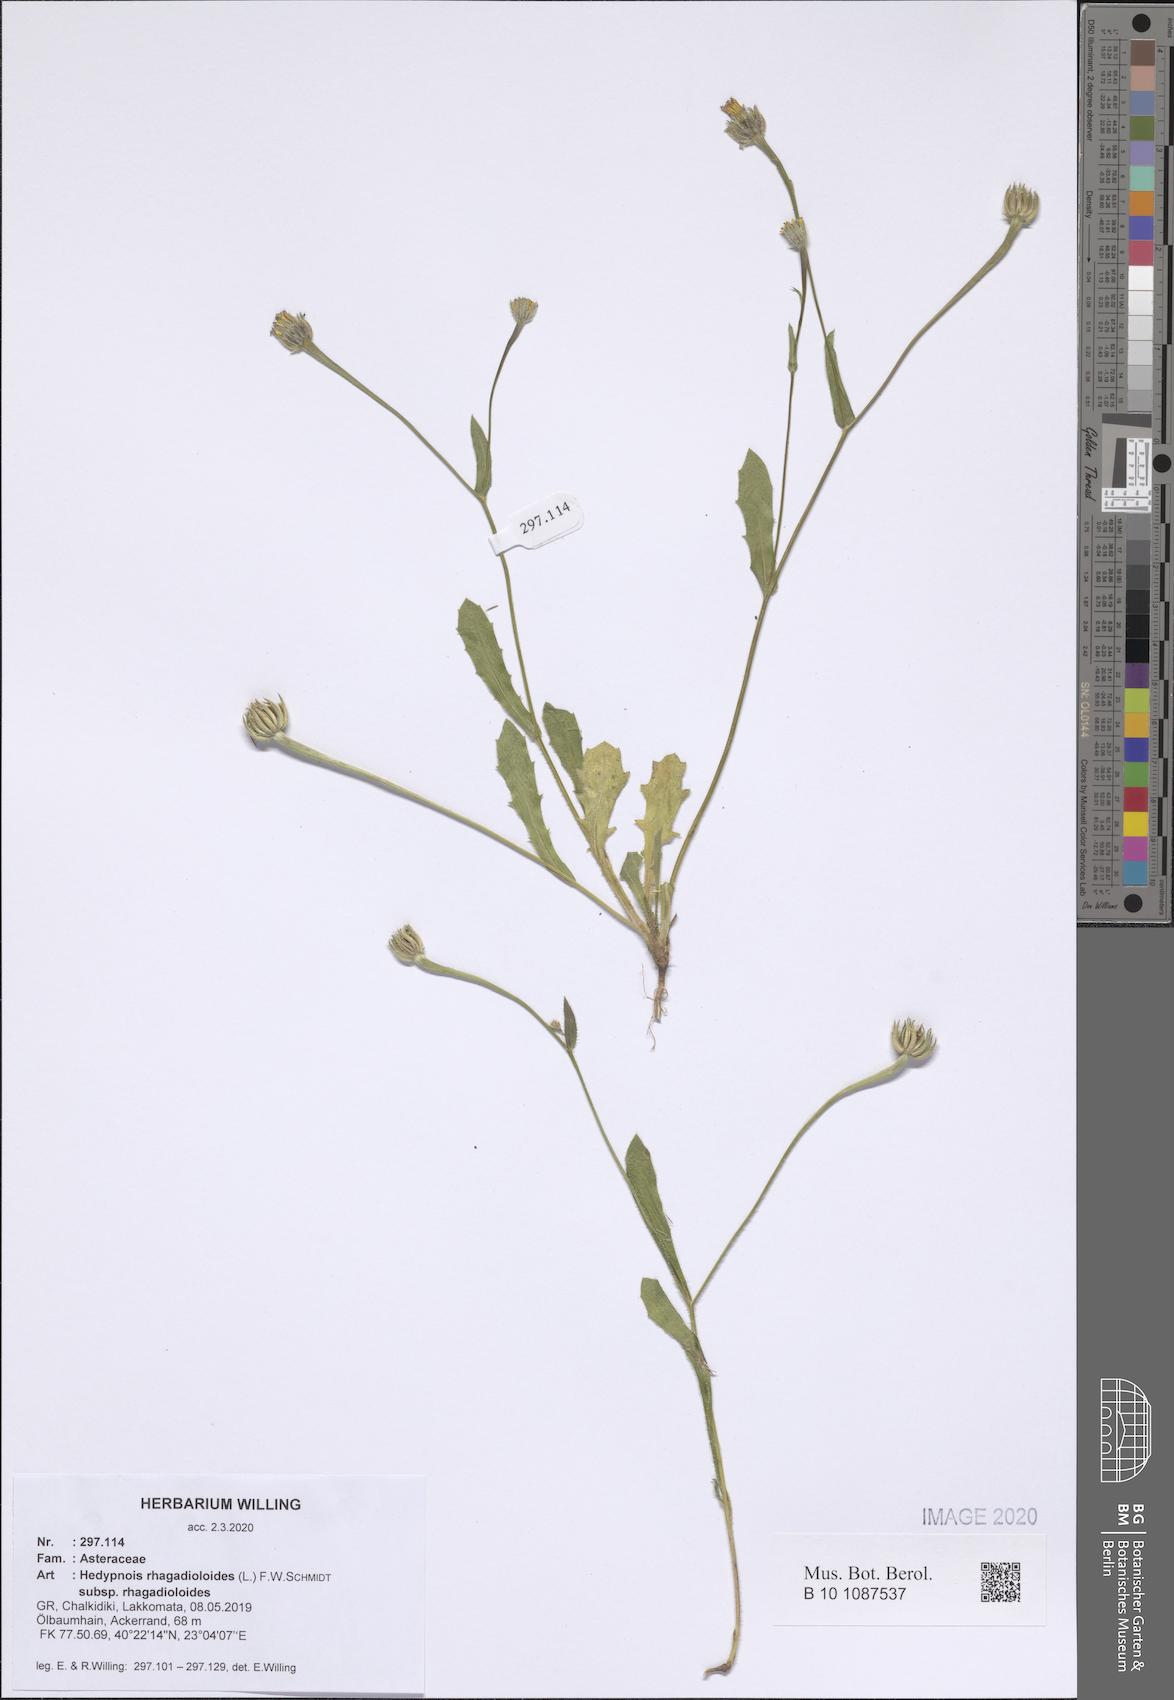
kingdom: Plantae
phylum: Tracheophyta
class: Magnoliopsida
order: Asterales
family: Asteraceae
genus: Hedypnois
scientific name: Hedypnois rhagadioloides
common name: Cretan weed
